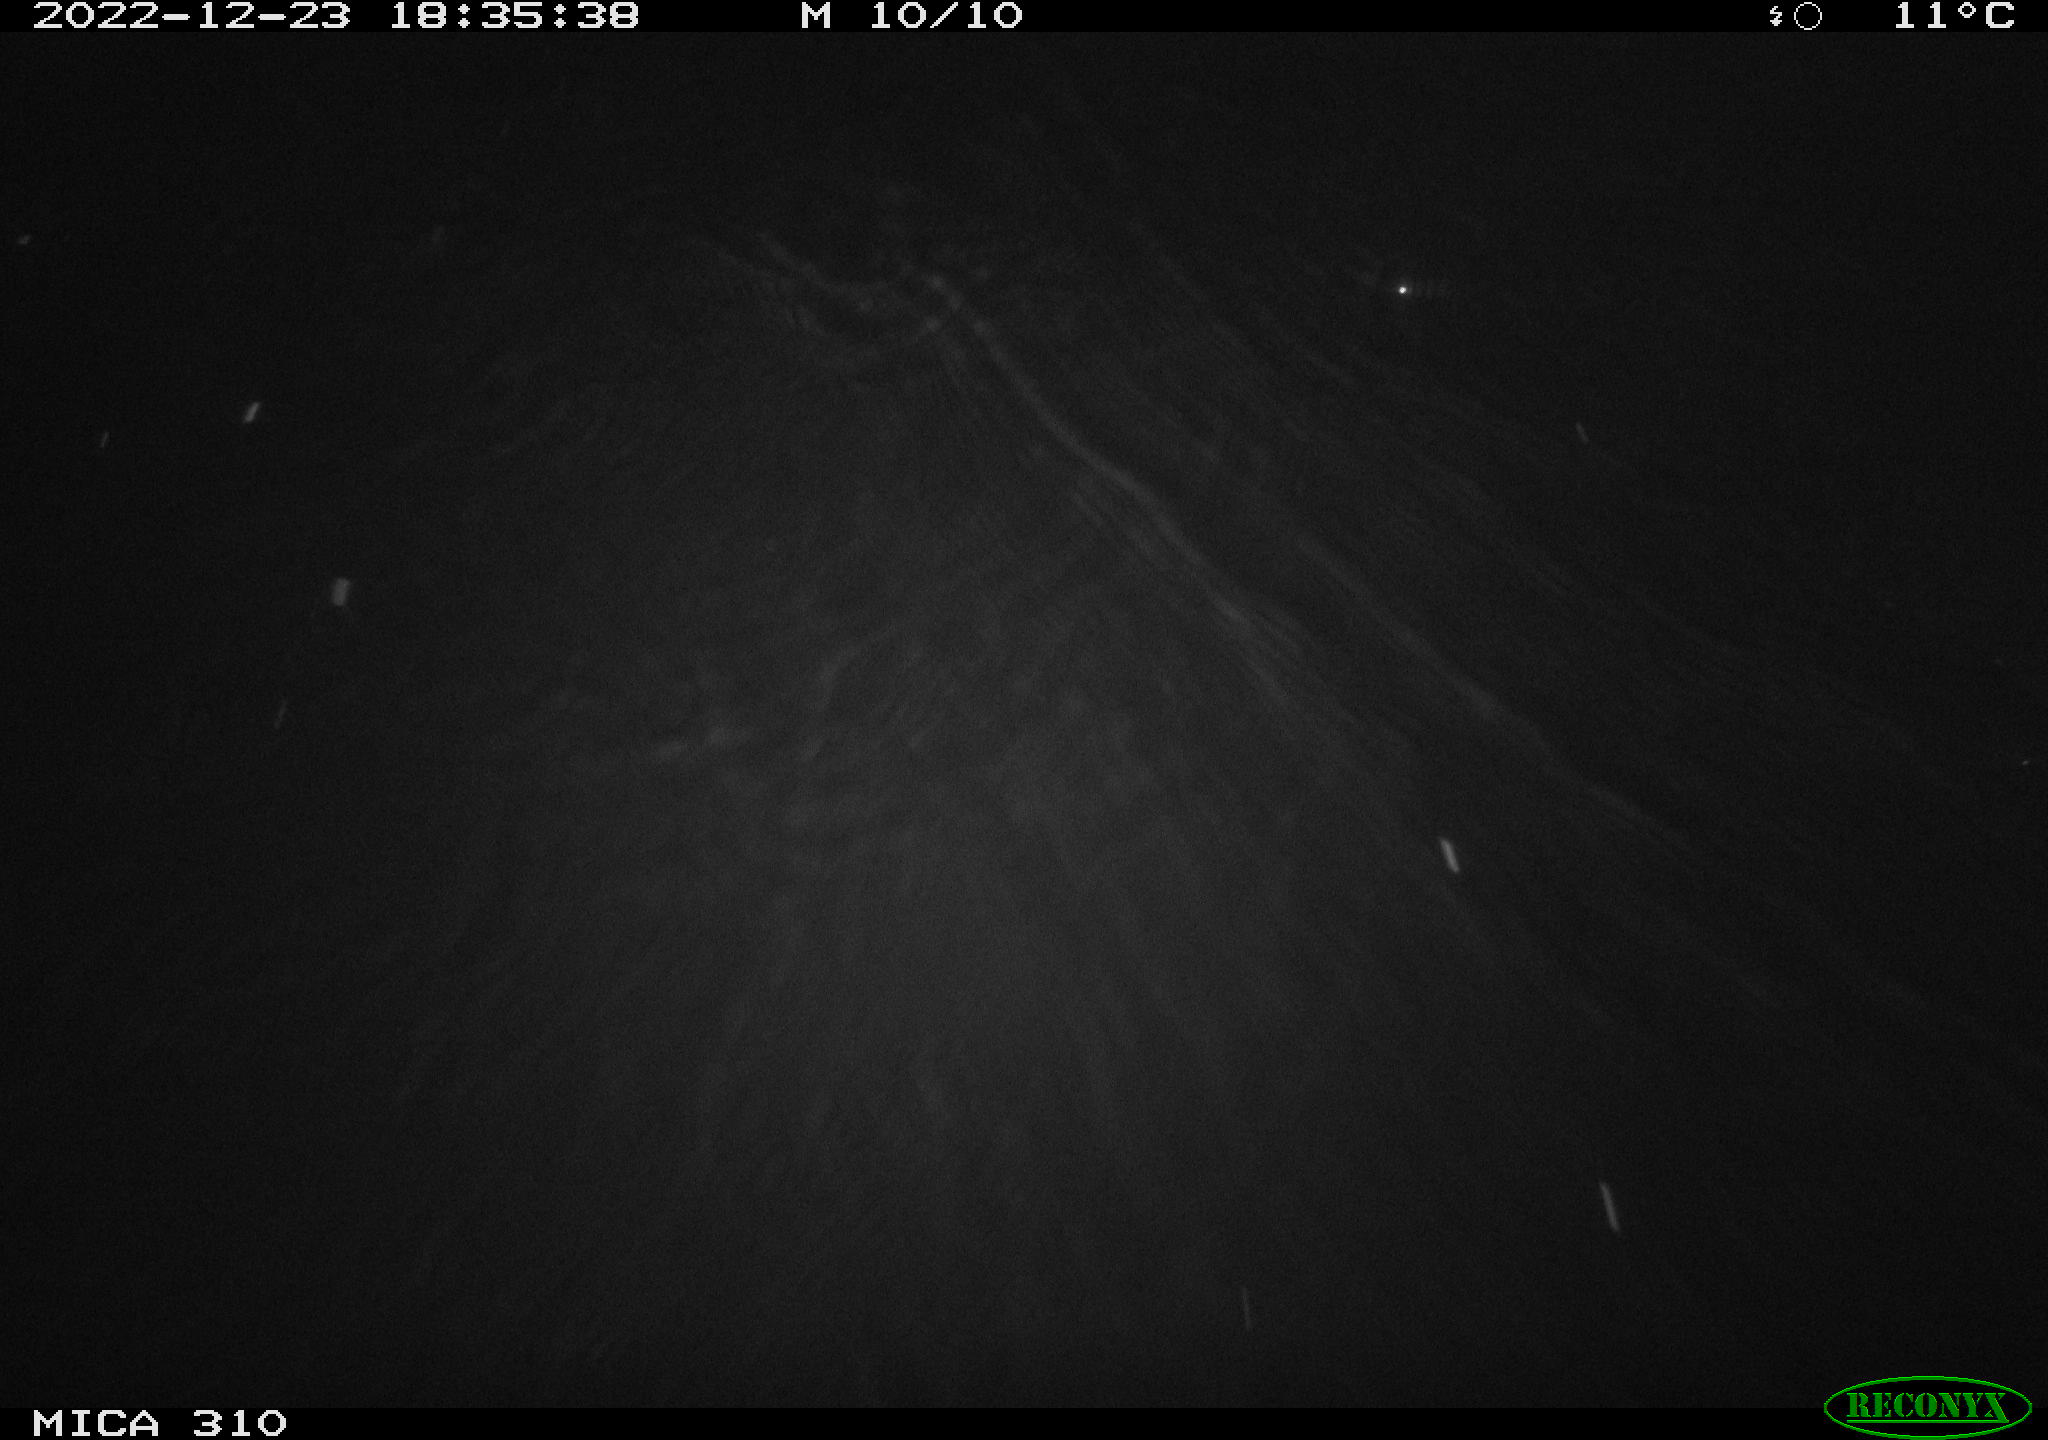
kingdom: Animalia
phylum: Chordata
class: Mammalia
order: Rodentia
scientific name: Rodentia
